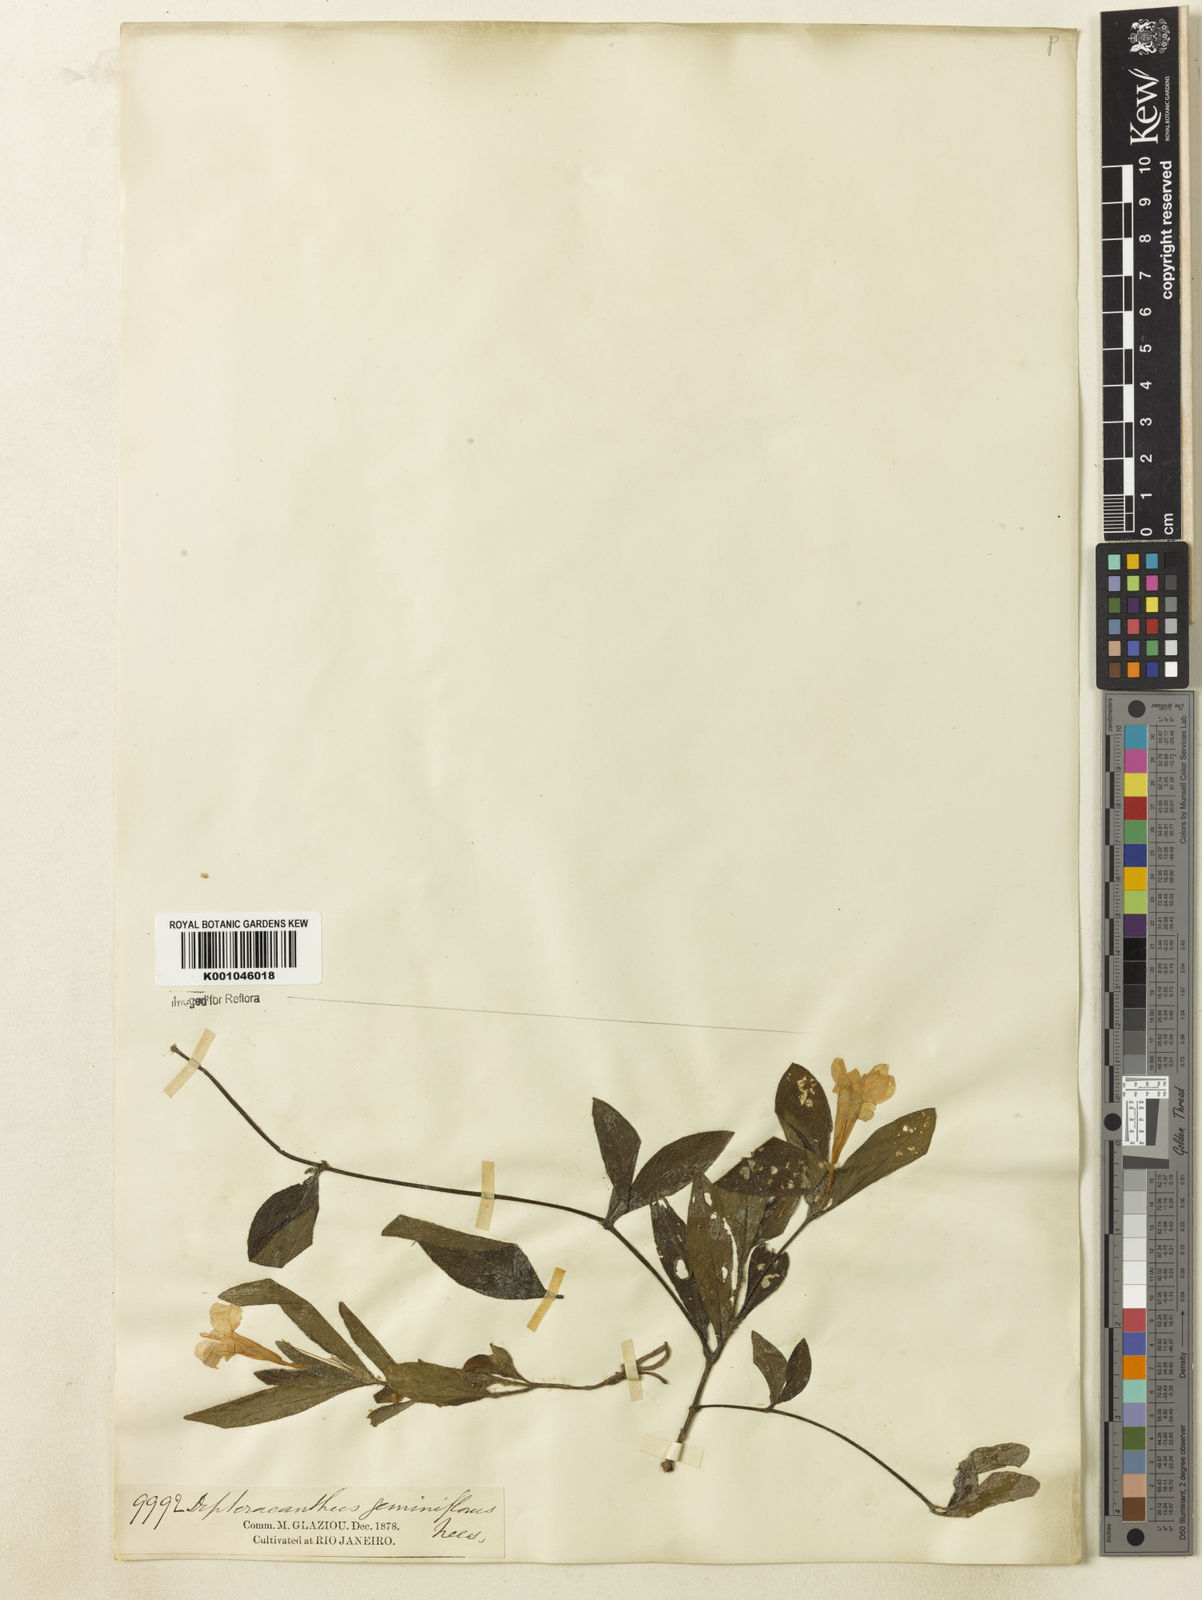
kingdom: Plantae
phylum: Tracheophyta
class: Magnoliopsida
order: Lamiales
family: Acanthaceae
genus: Ruellia
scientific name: Ruellia geminiflora
